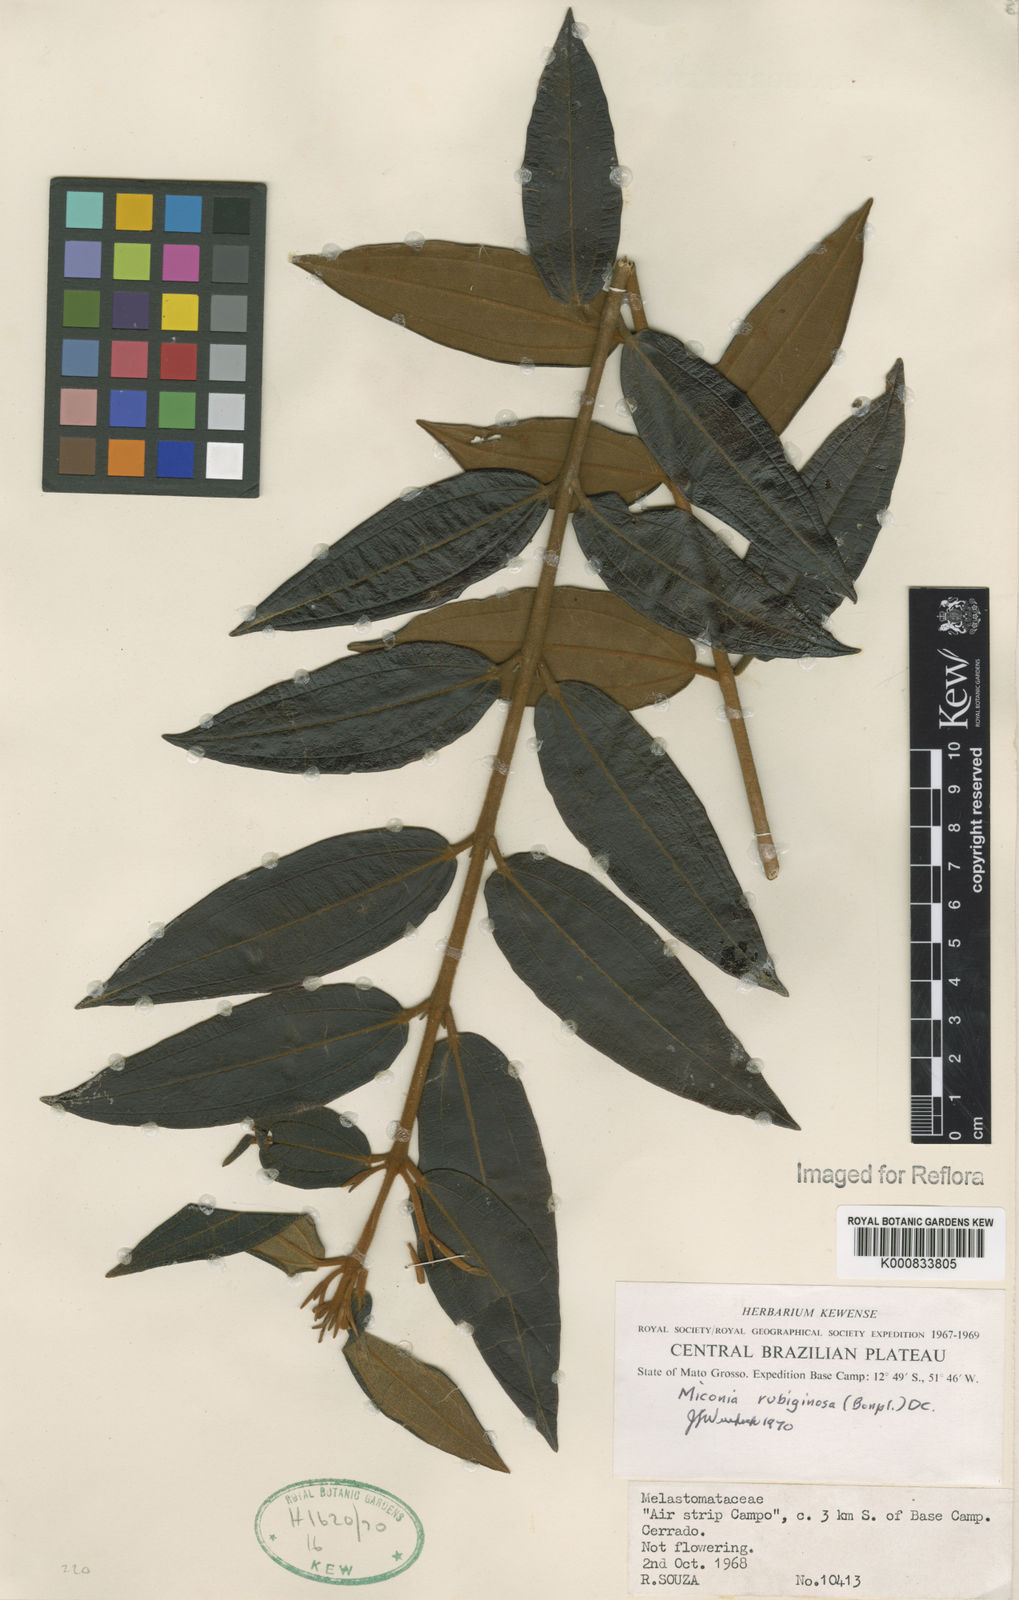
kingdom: Plantae
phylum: Tracheophyta
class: Magnoliopsida
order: Myrtales
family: Melastomataceae
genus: Miconia
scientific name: Miconia rubiginosa
